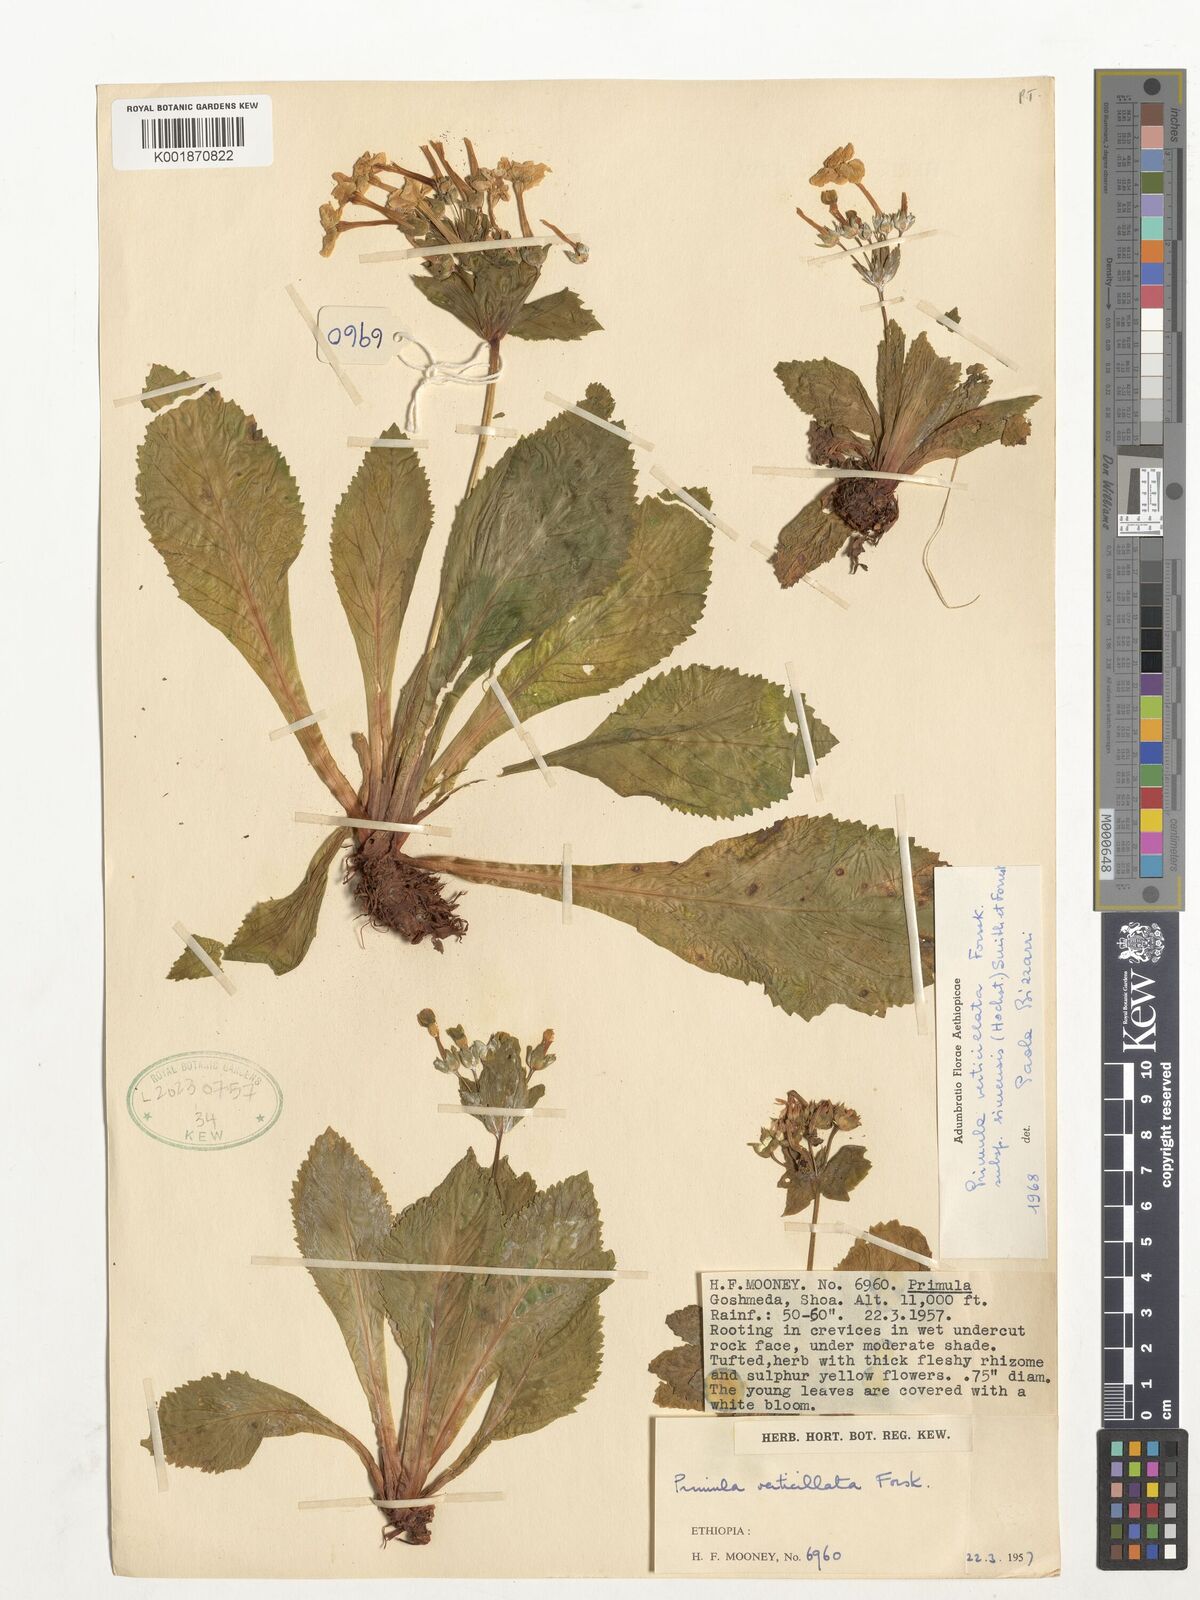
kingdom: Plantae
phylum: Tracheophyta
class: Magnoliopsida
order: Ericales
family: Primulaceae
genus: Evotrochis
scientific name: Evotrochis simensis
